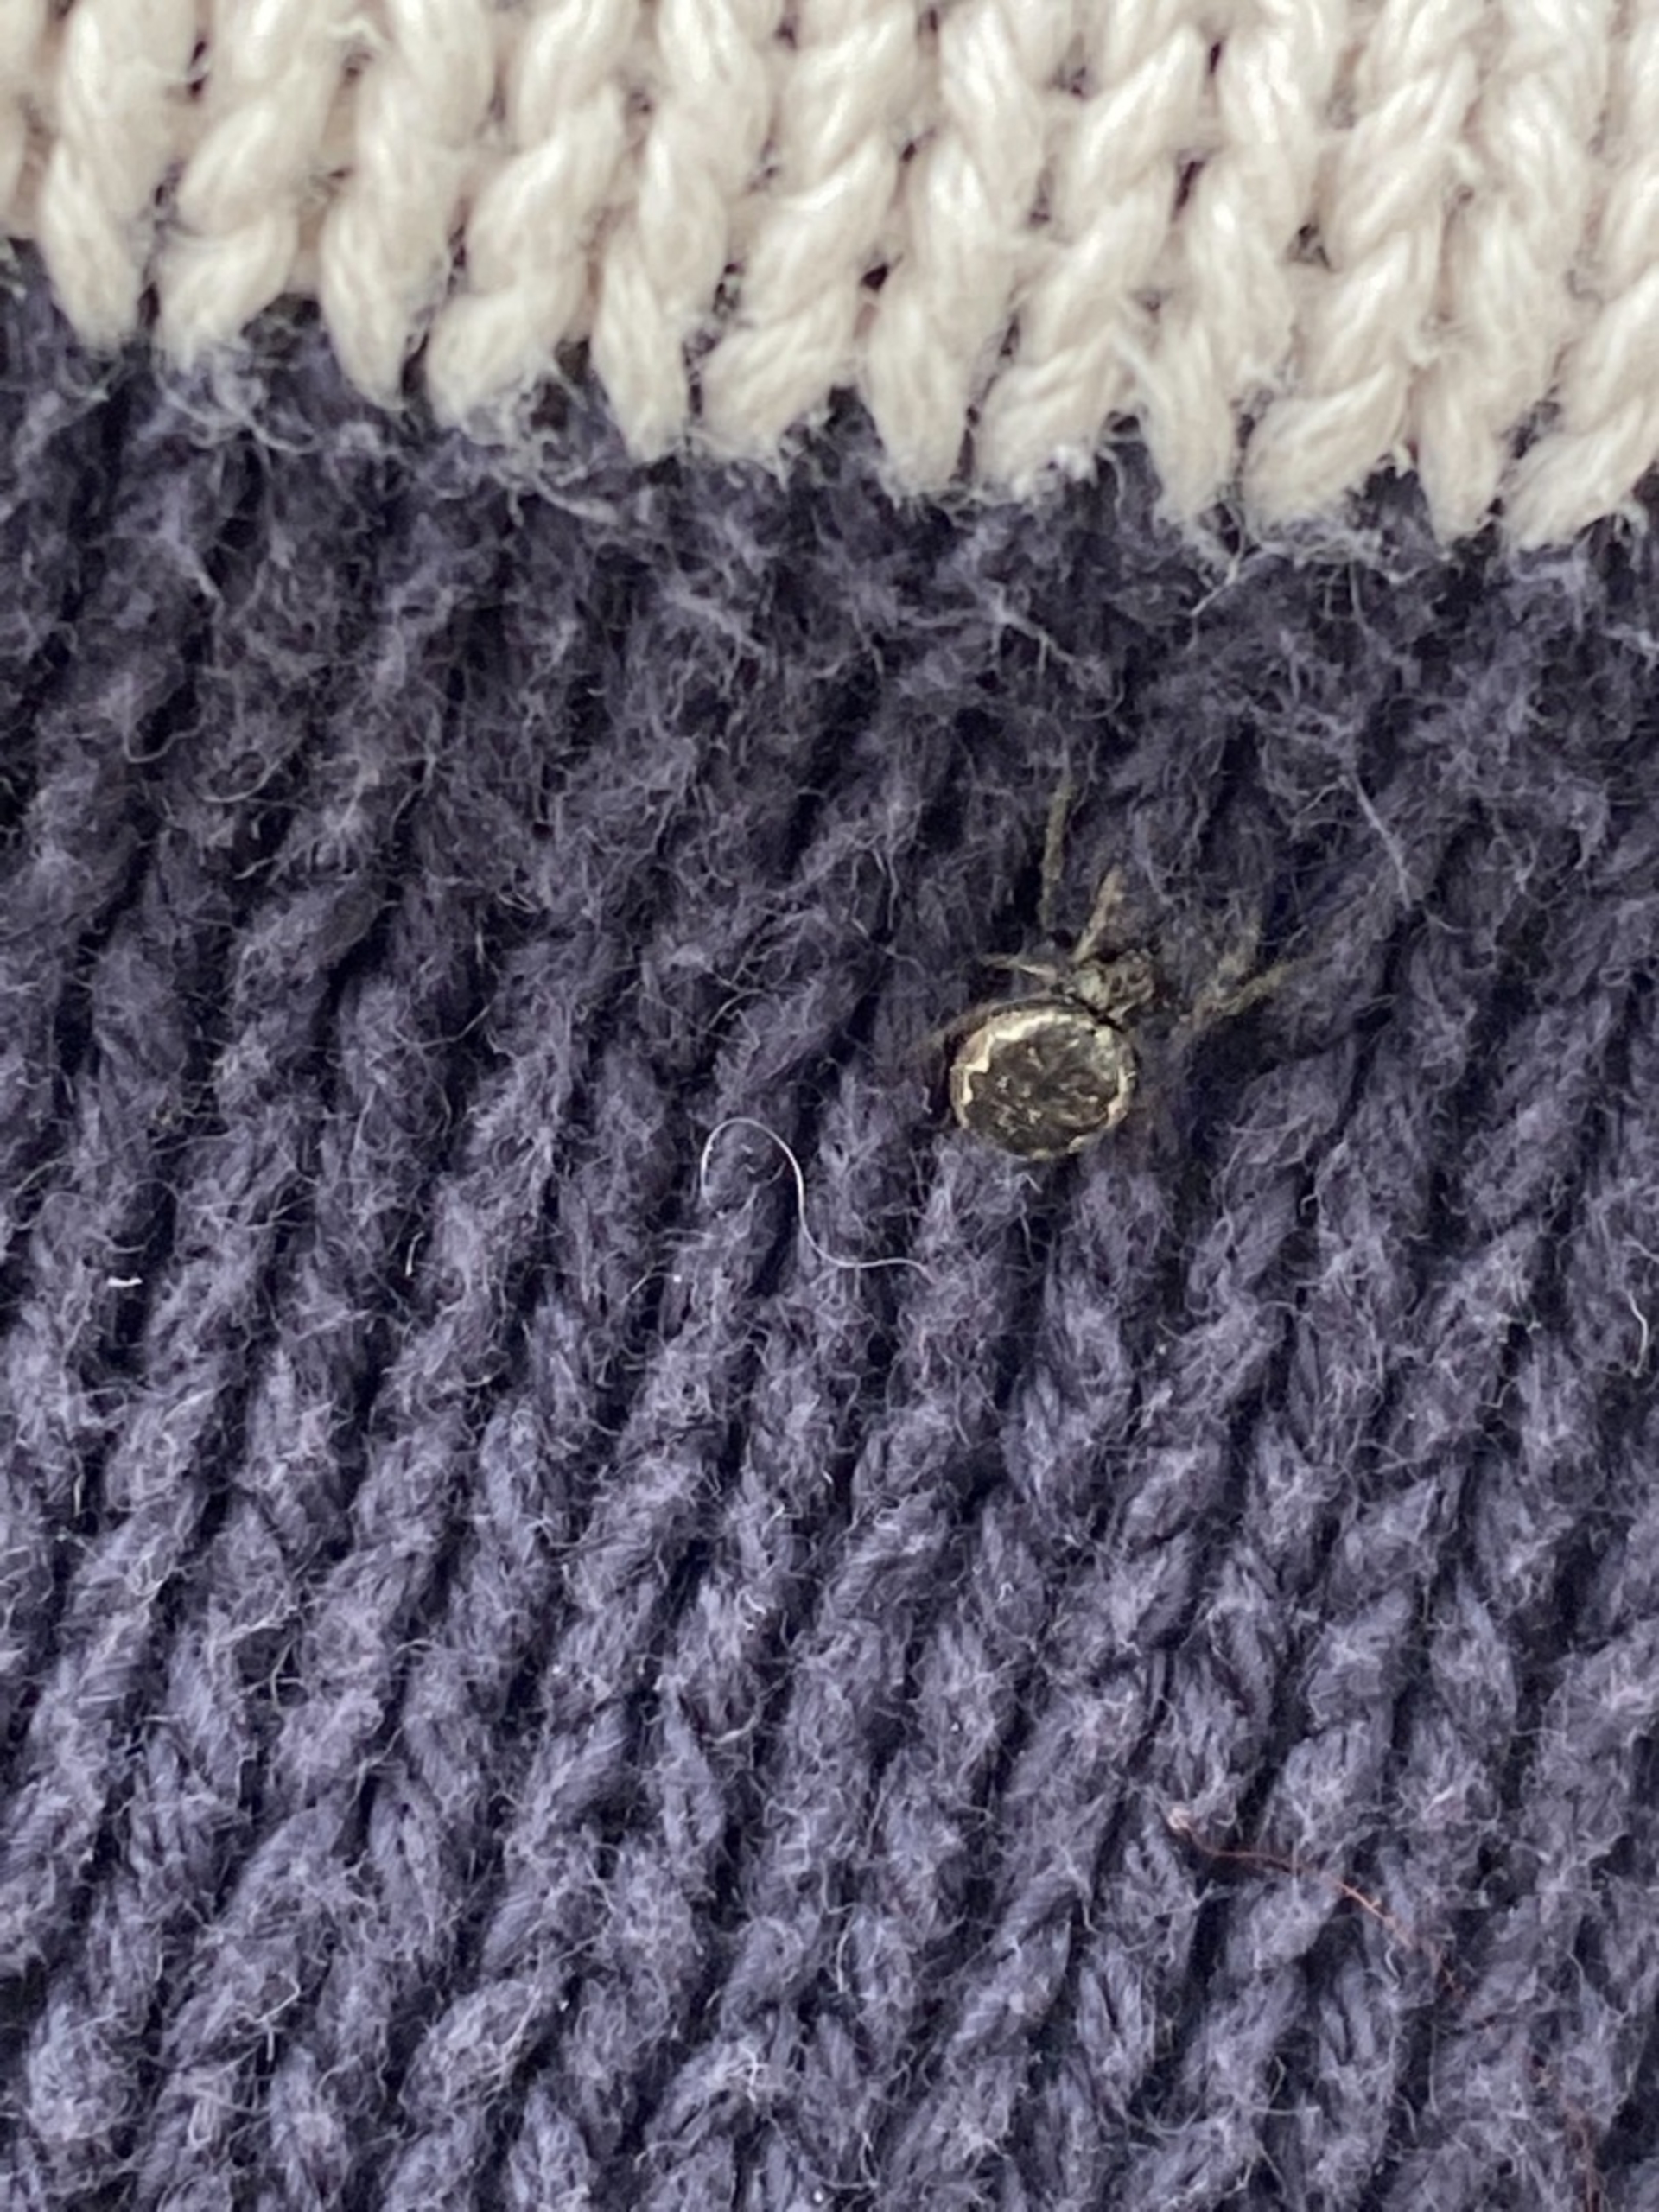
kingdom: Animalia
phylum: Arthropoda
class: Arachnida
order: Araneae
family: Araneidae
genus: Nuctenea
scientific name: Nuctenea umbratica
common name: Flad hjulspinder
